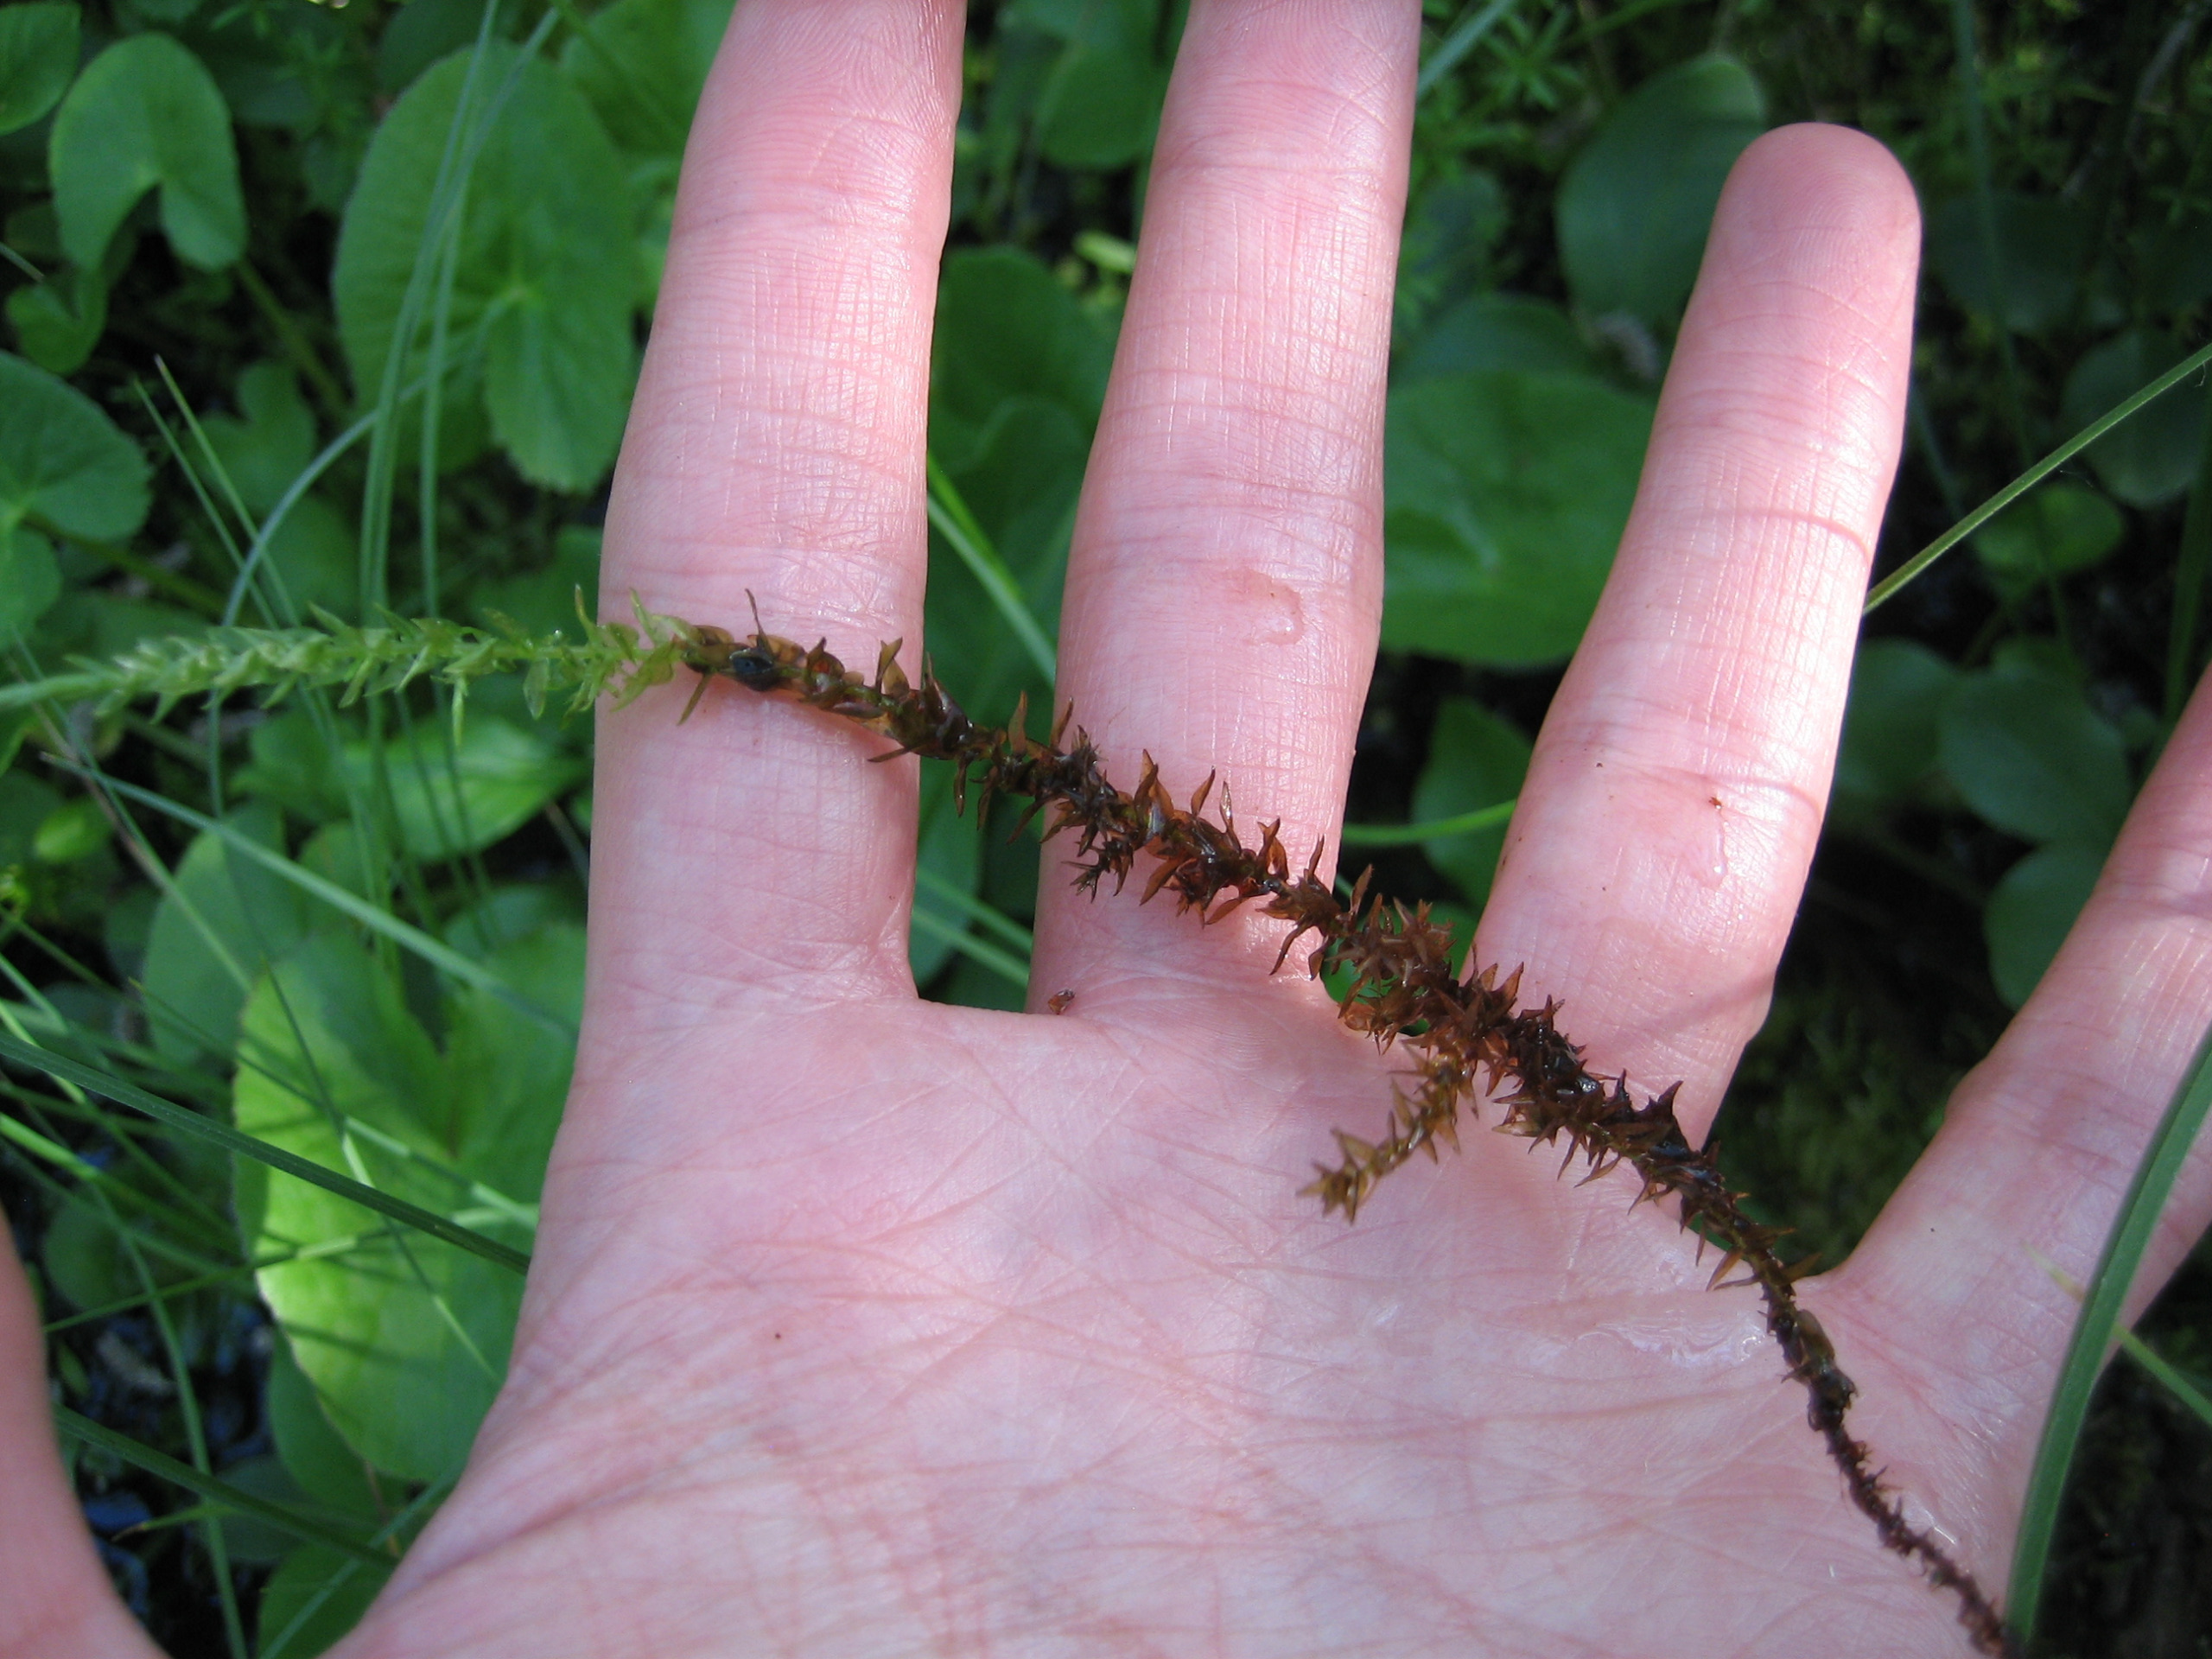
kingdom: Plantae
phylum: Bryophyta
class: Bryopsida
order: Hypnales
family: Calliergonaceae
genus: Calliergon
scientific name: Calliergon cordifolium
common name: Almindelig skebladsmos
